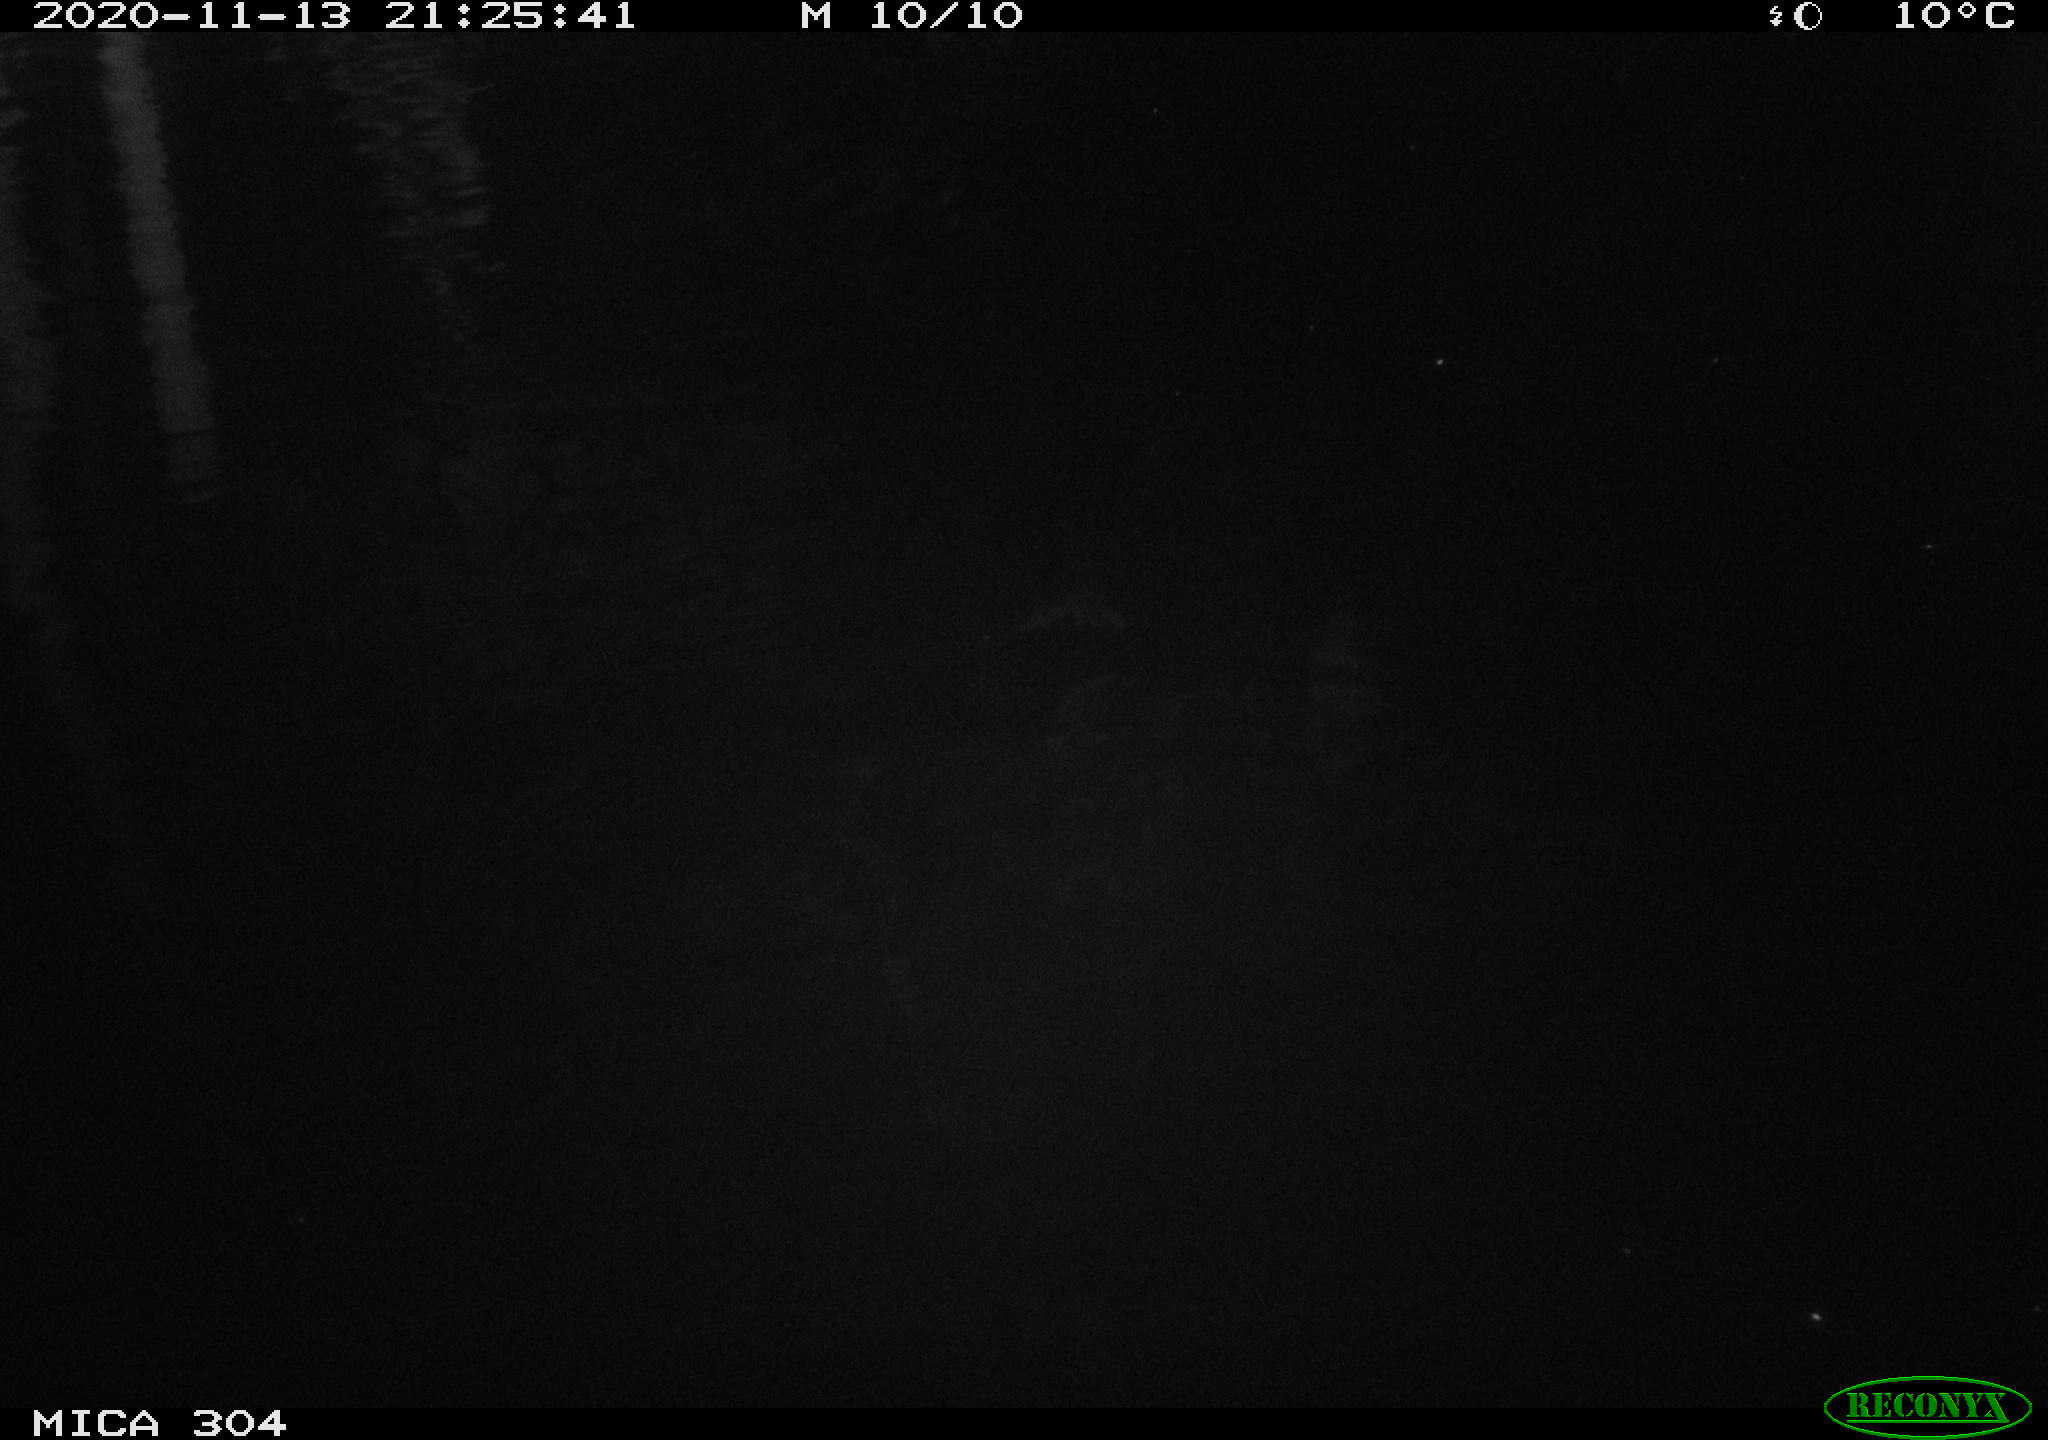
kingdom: Animalia
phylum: Chordata
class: Mammalia
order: Rodentia
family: Muridae
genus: Rattus
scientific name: Rattus norvegicus
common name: Brown rat
